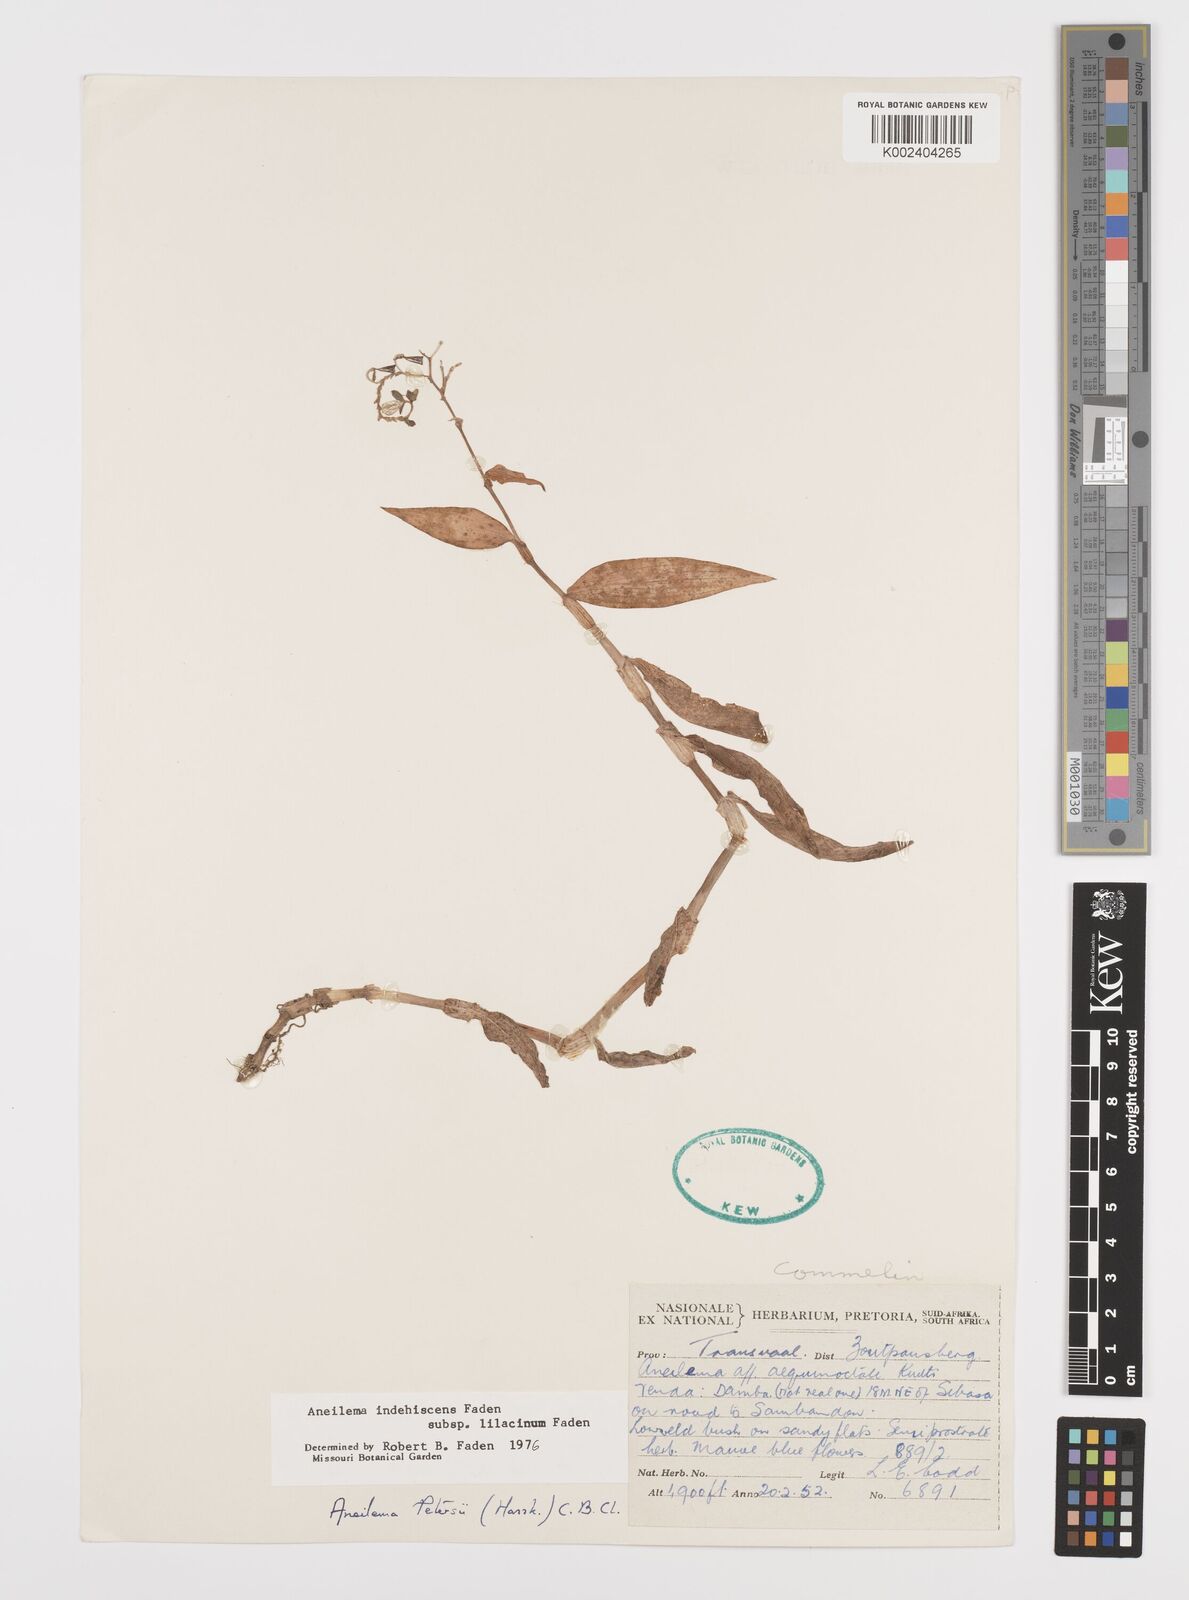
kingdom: Plantae
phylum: Tracheophyta
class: Liliopsida
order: Commelinales
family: Commelinaceae
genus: Aneilema
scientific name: Aneilema indehiscens
